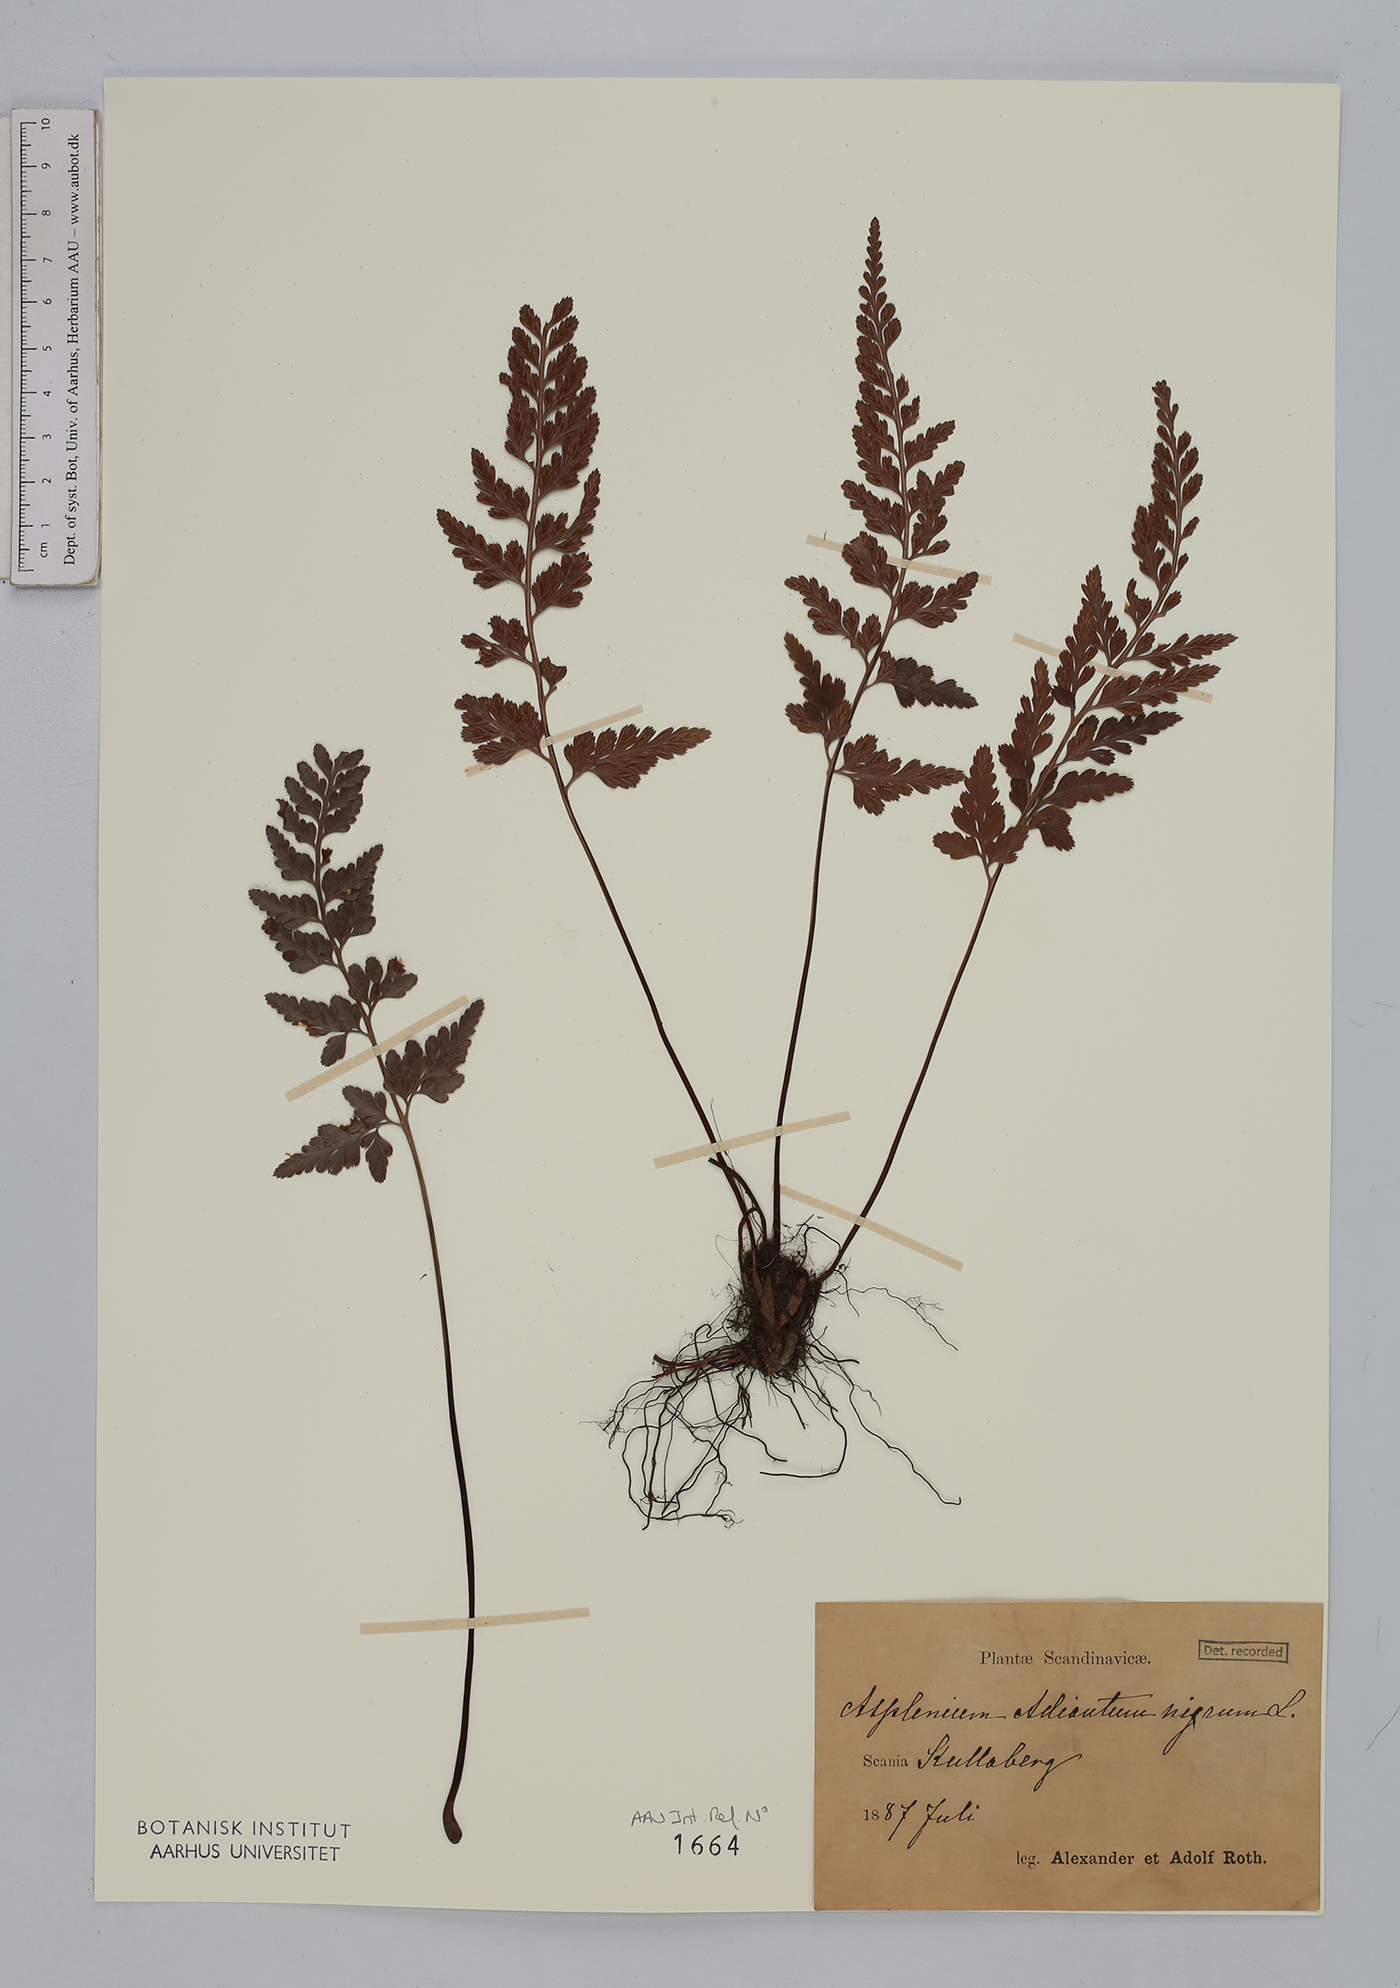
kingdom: Plantae
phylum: Tracheophyta
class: Polypodiopsida
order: Polypodiales
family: Aspleniaceae
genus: Asplenium
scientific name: Asplenium adiantum-nigrum
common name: Black spleenwort
